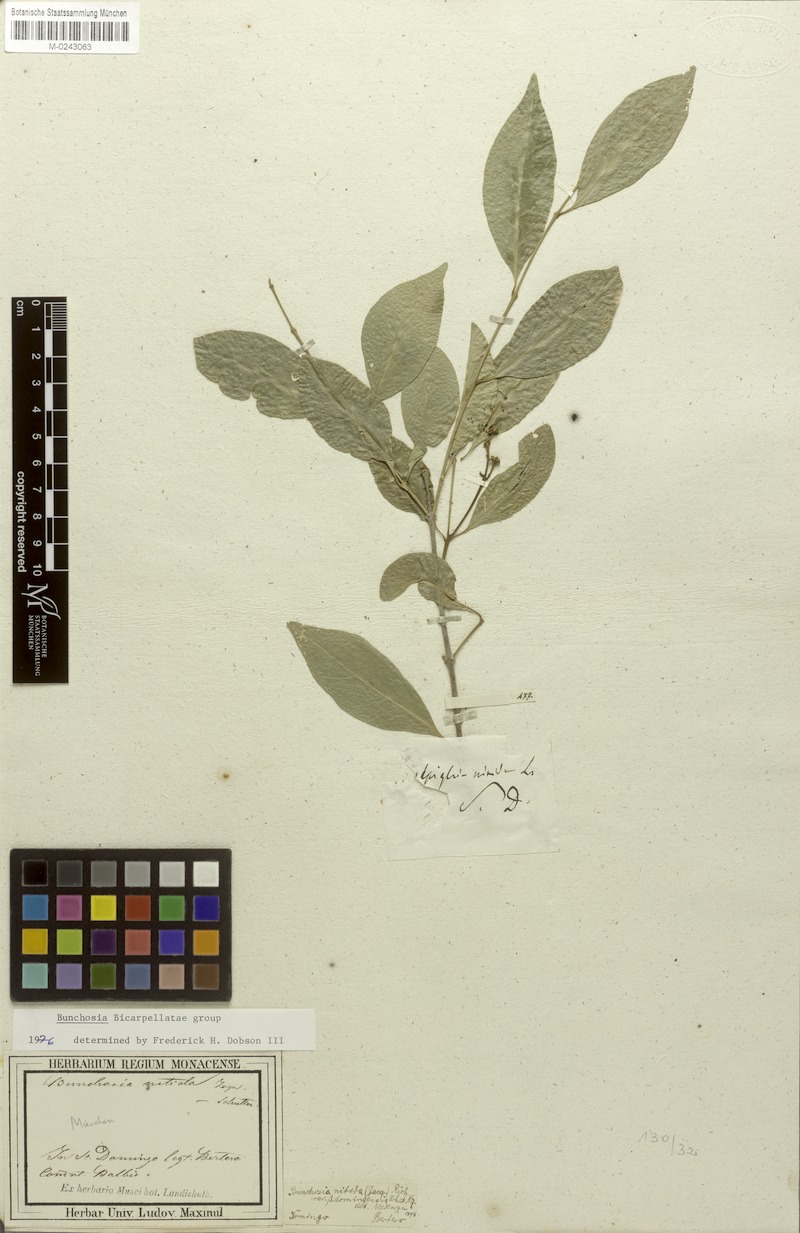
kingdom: Plantae
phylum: Tracheophyta
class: Magnoliopsida
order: Malpighiales
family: Malpighiaceae
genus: Bunchosia
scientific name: Bunchosia nitida
